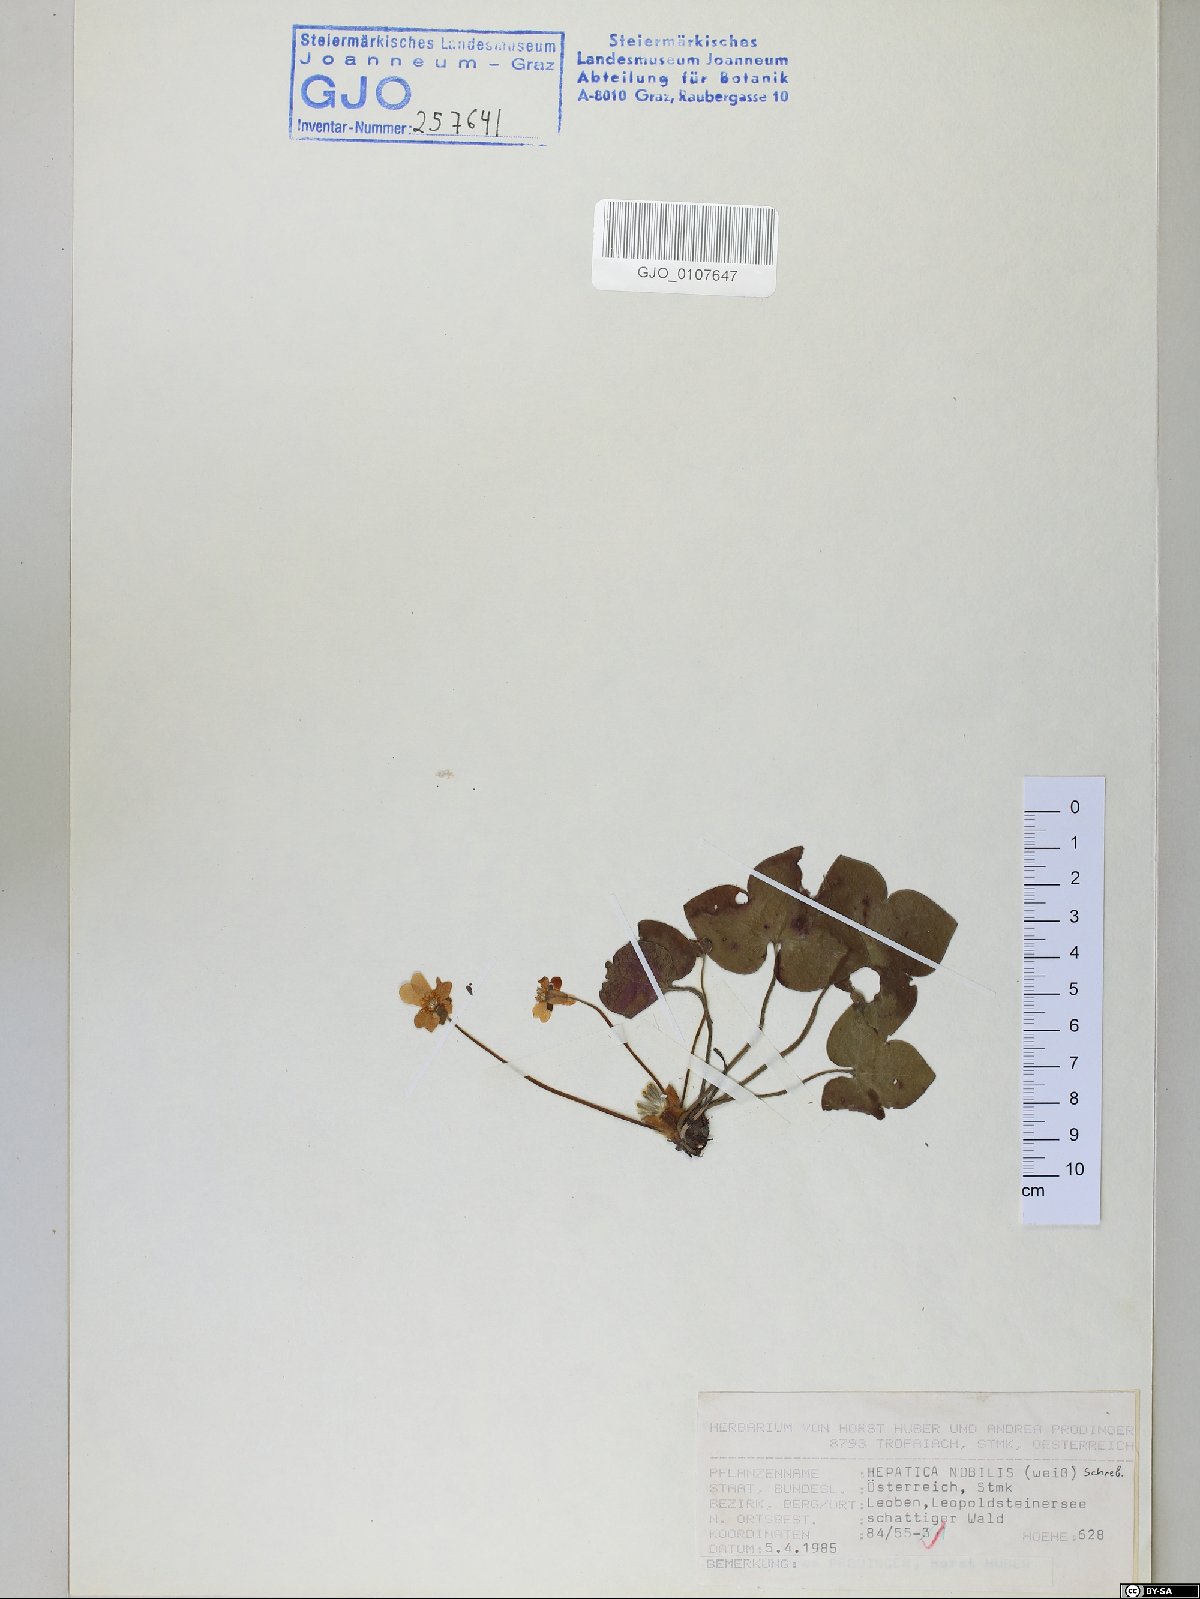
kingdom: Plantae
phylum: Tracheophyta
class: Magnoliopsida
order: Ranunculales
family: Ranunculaceae
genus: Hepatica
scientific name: Hepatica nobilis
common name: Liverleaf
